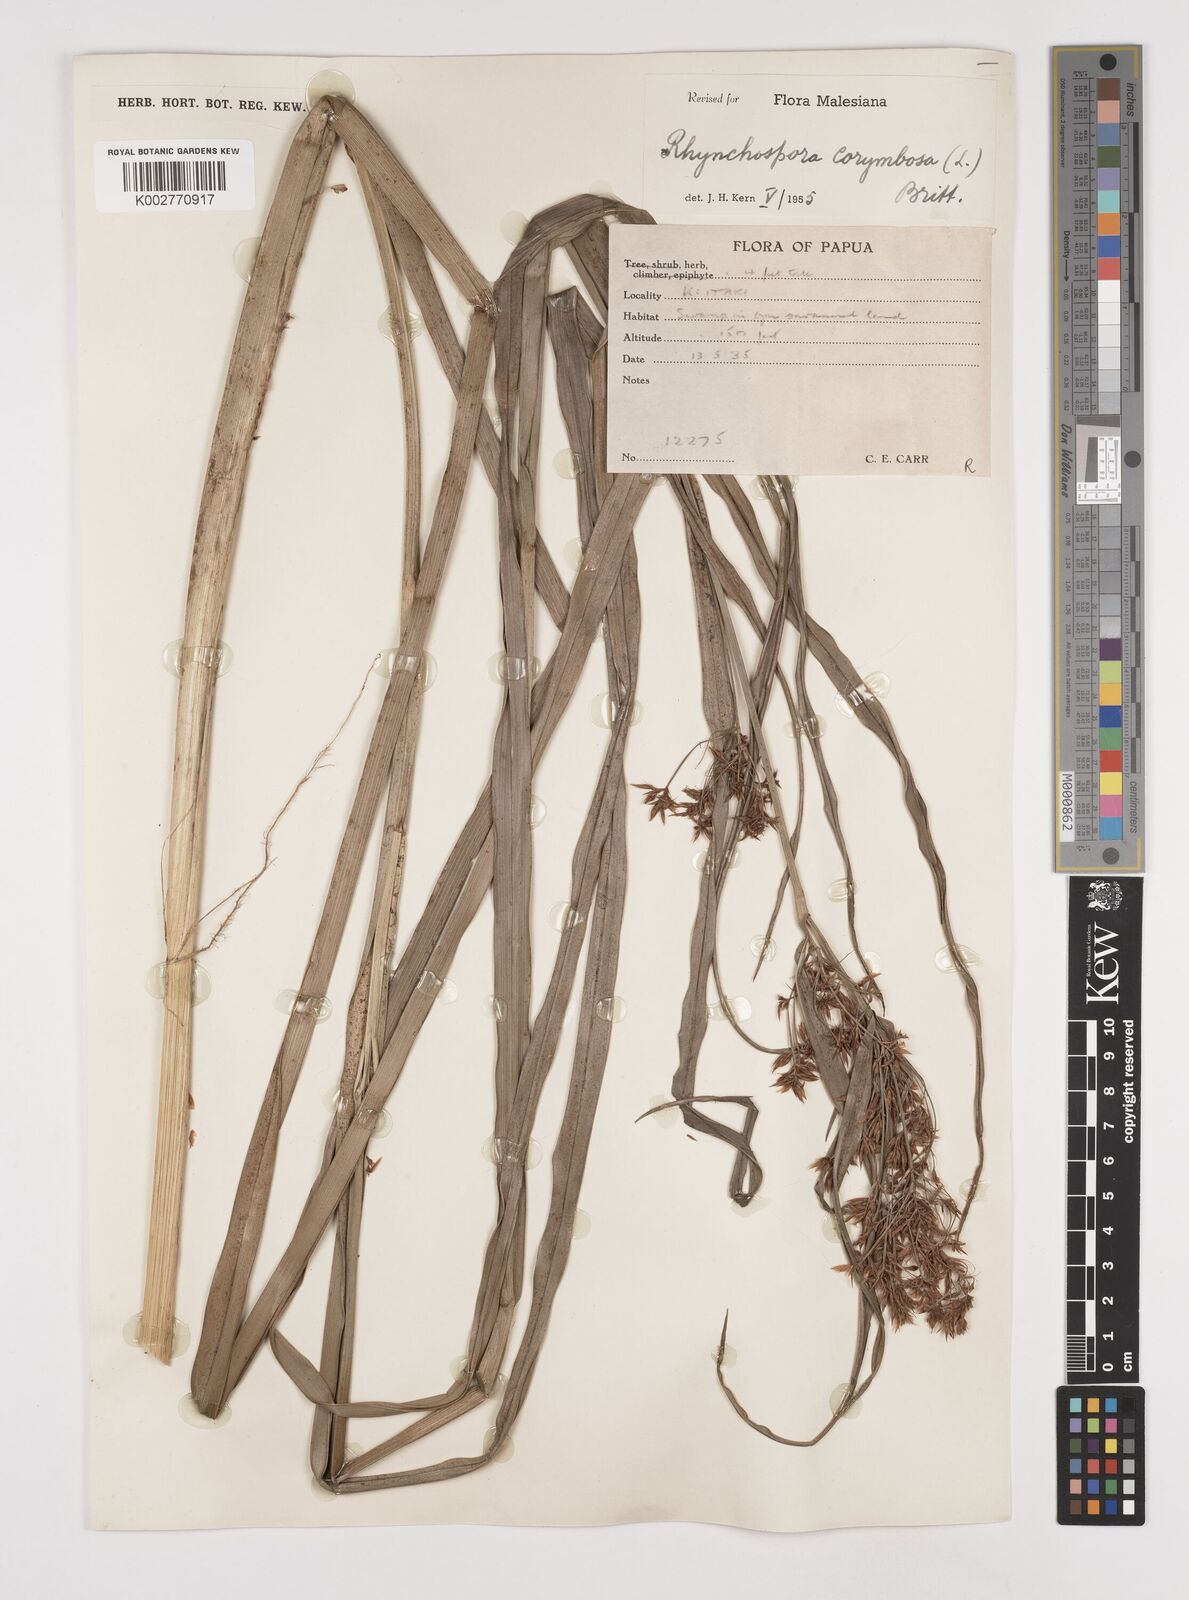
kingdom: Plantae
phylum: Tracheophyta
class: Liliopsida
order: Poales
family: Cyperaceae
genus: Rhynchospora
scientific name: Rhynchospora corymbosa
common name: Golden beak sedge
